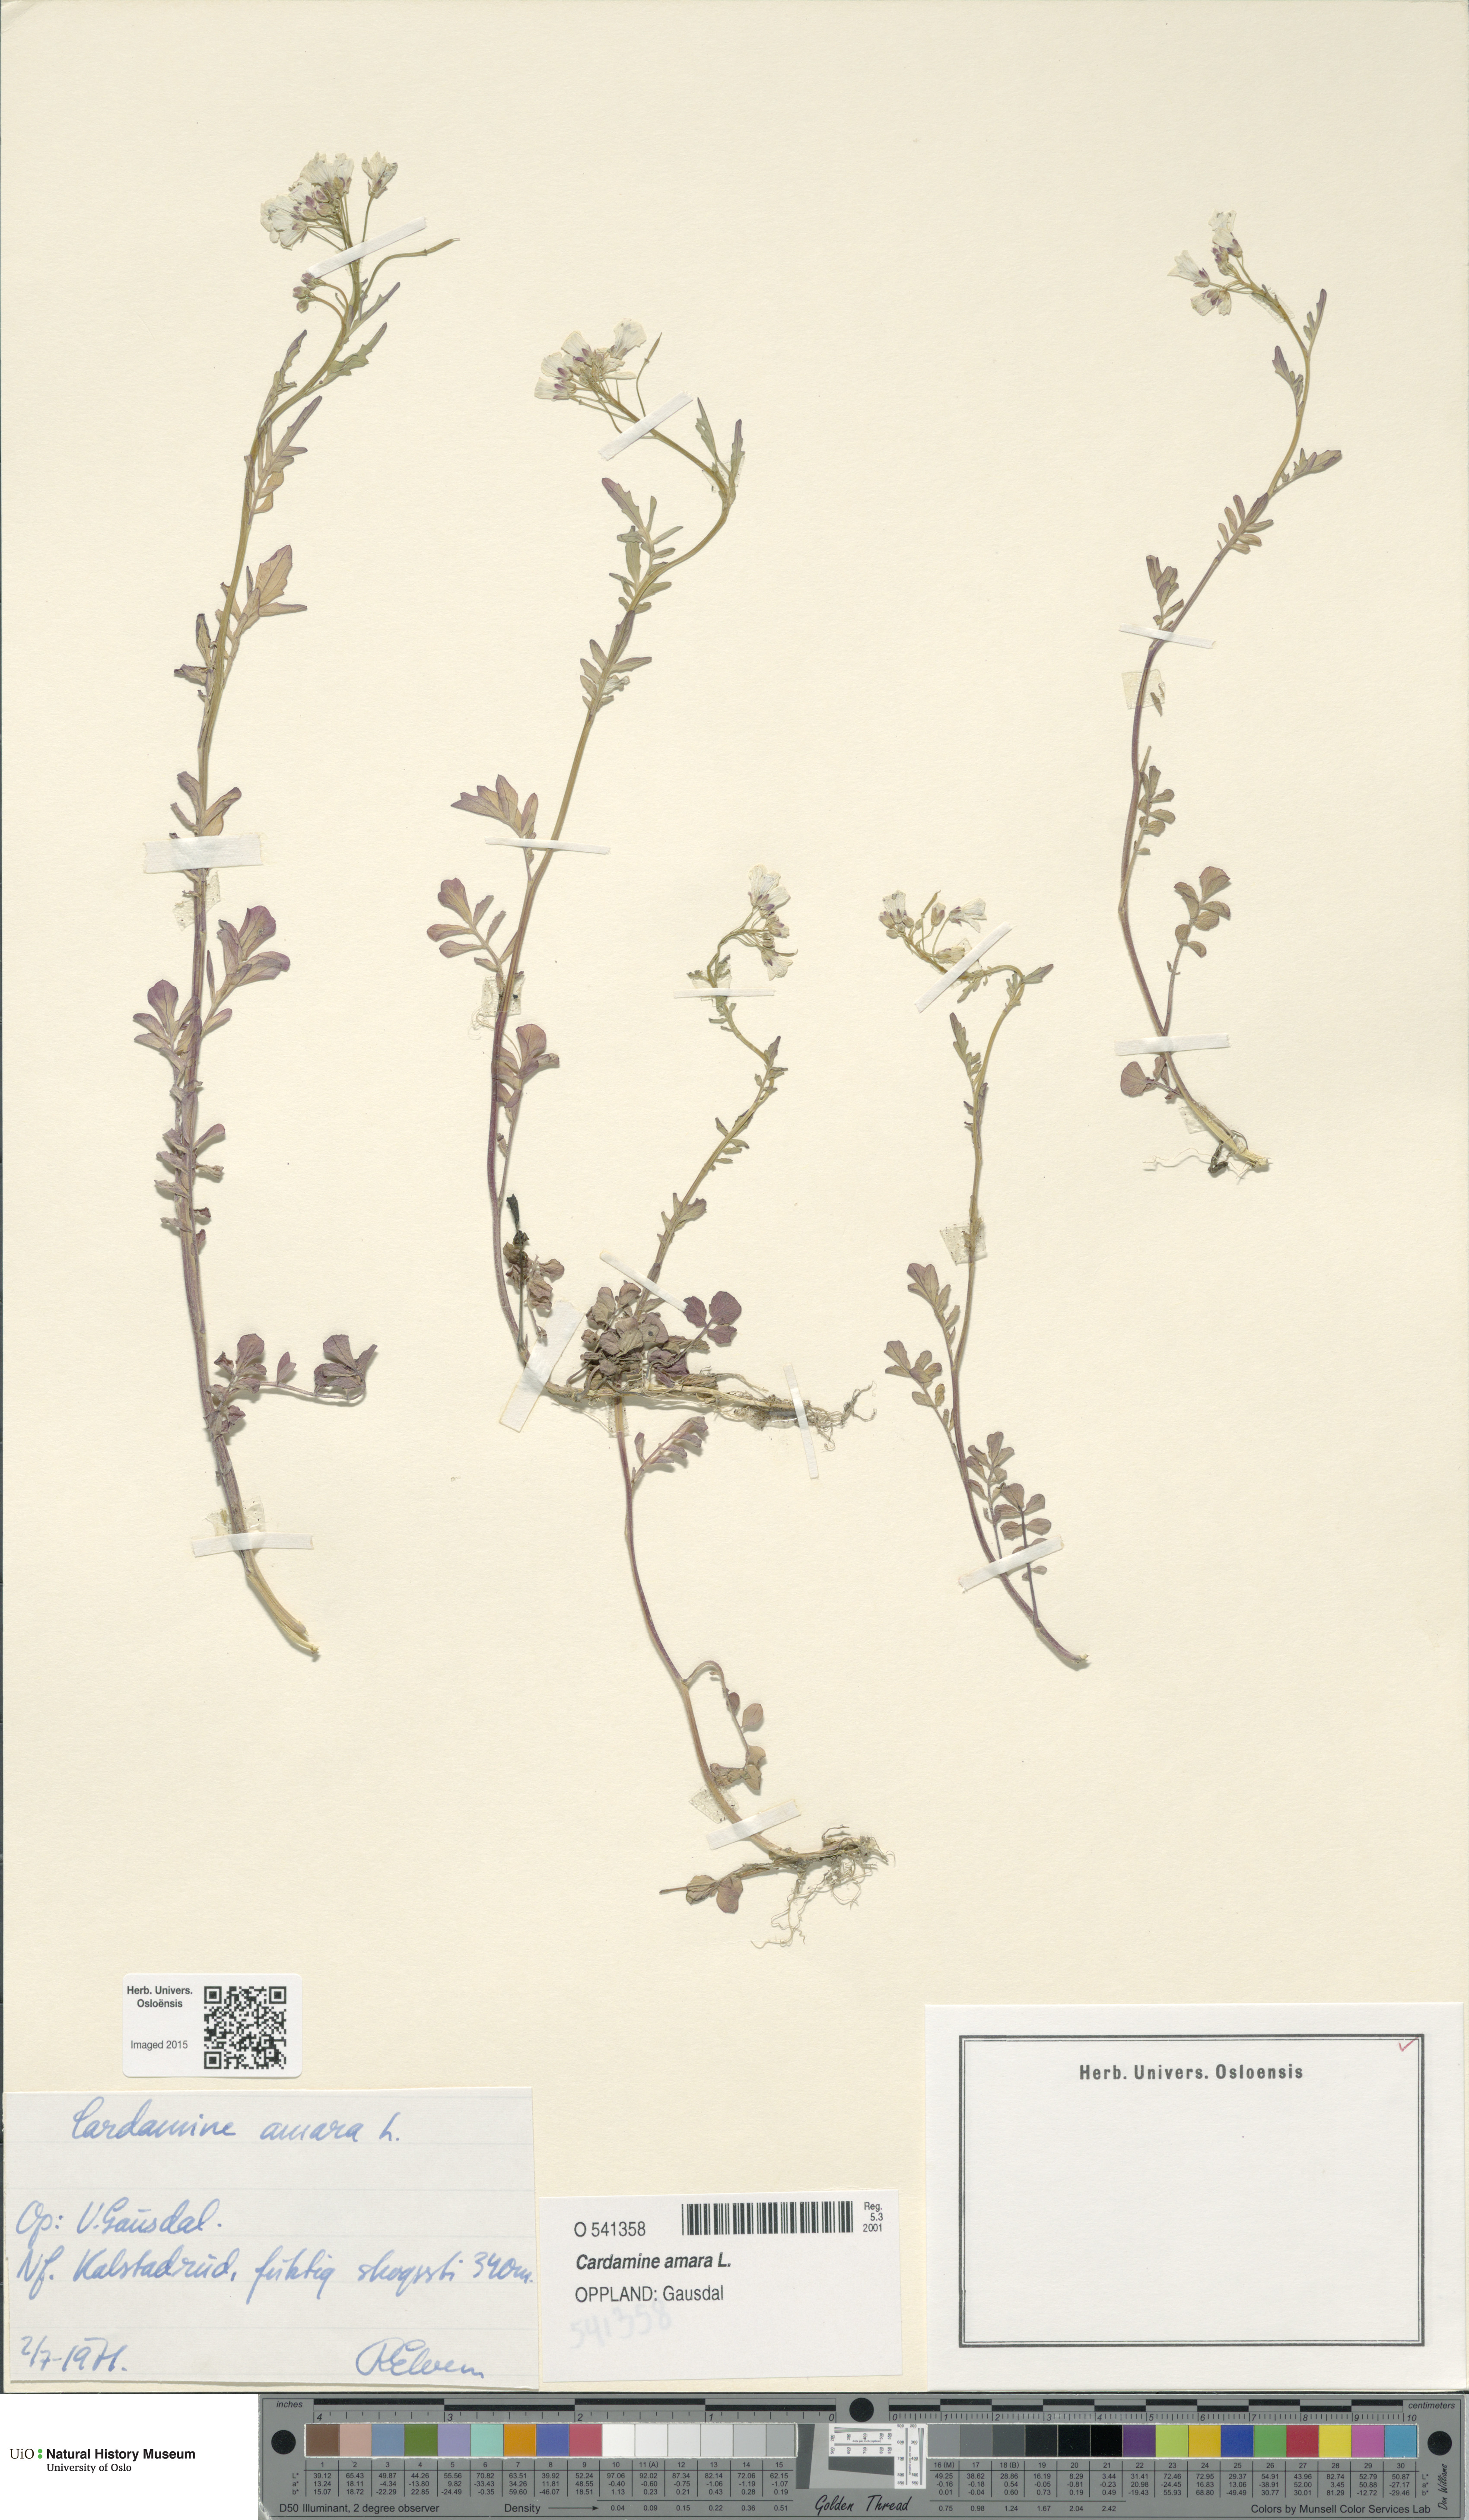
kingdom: Plantae
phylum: Tracheophyta
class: Magnoliopsida
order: Brassicales
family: Brassicaceae
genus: Cardamine
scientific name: Cardamine amara
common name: Large bitter-cress
